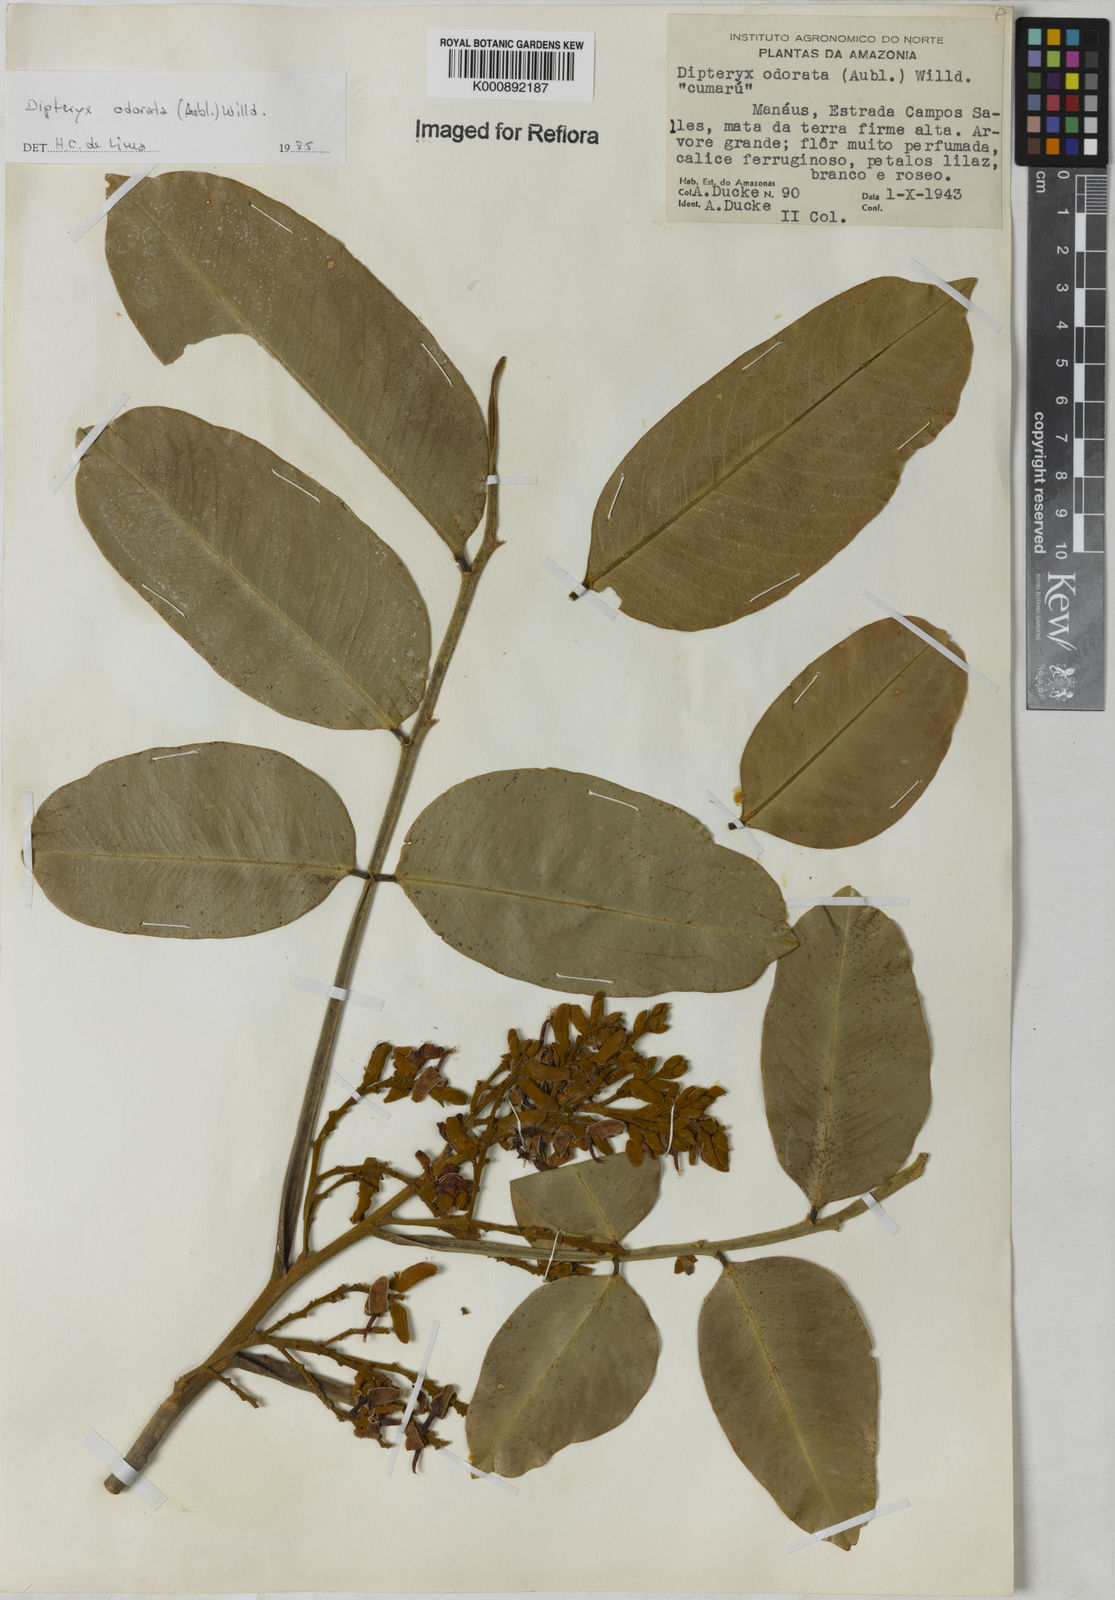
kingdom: Plantae
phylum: Tracheophyta
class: Magnoliopsida
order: Fabales
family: Fabaceae
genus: Dipteryx
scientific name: Dipteryx
